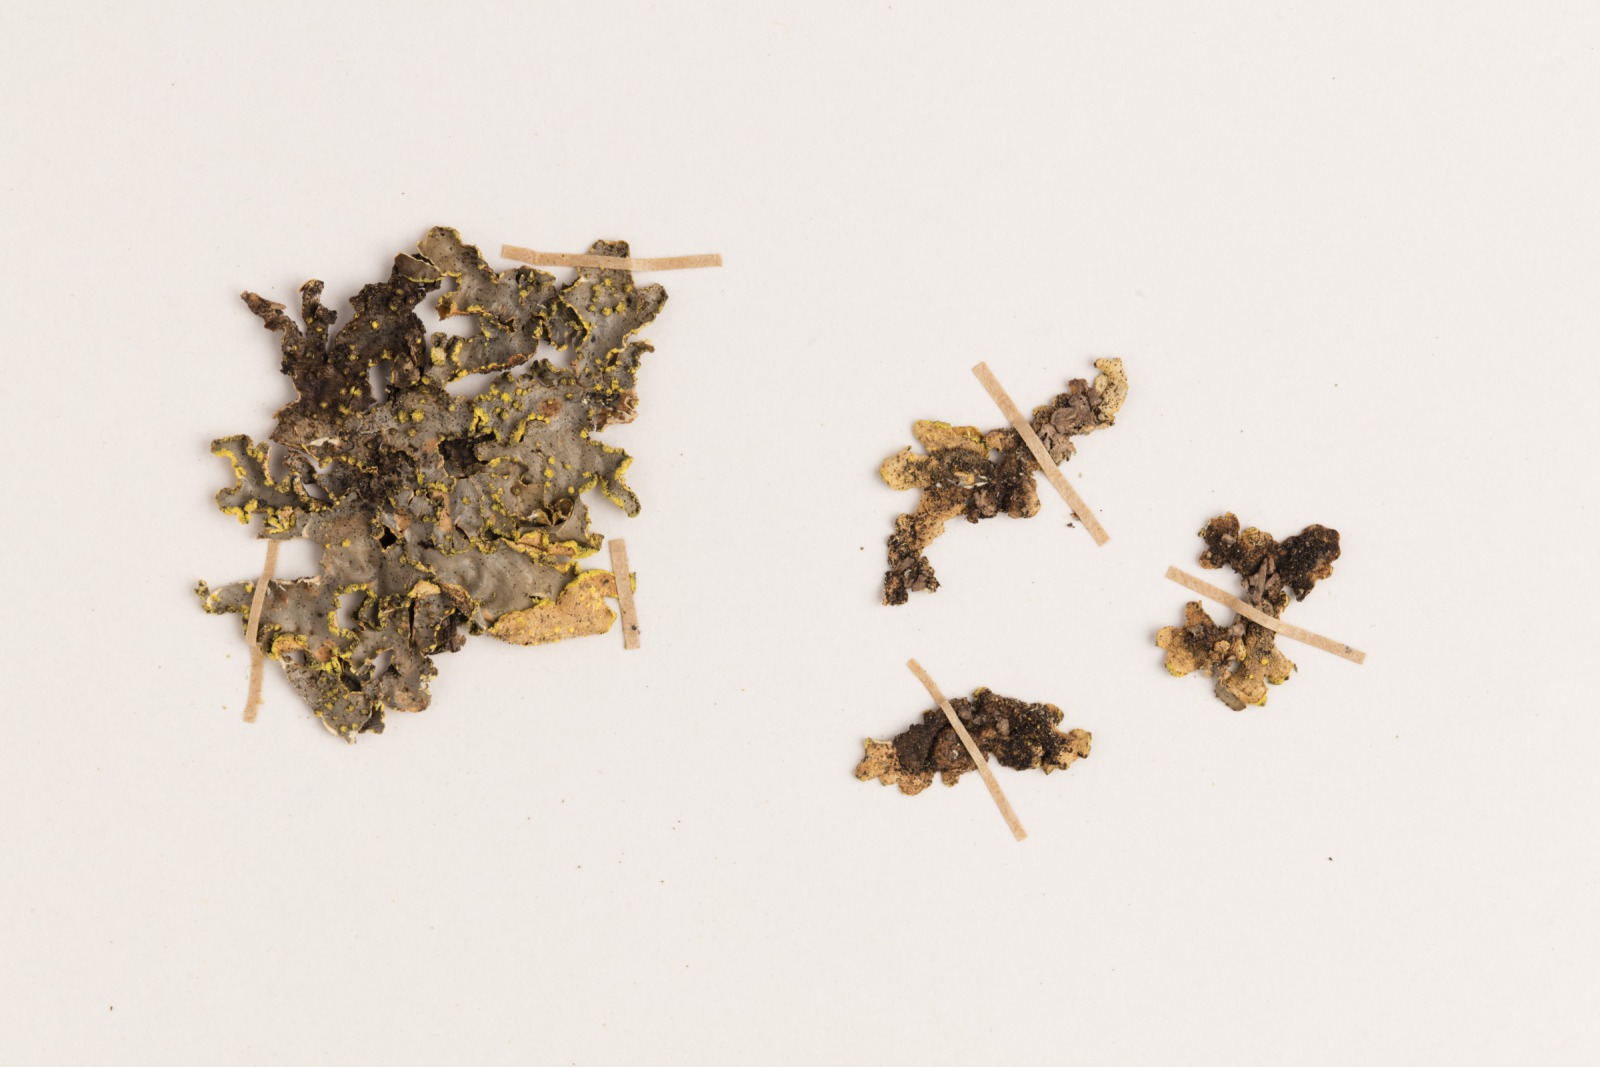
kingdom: Fungi
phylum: Ascomycota
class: Lecanoromycetes
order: Peltigerales
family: Lobariaceae
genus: Pseudocyphellaria
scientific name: Pseudocyphellaria crocata
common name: Golden specklebelly
